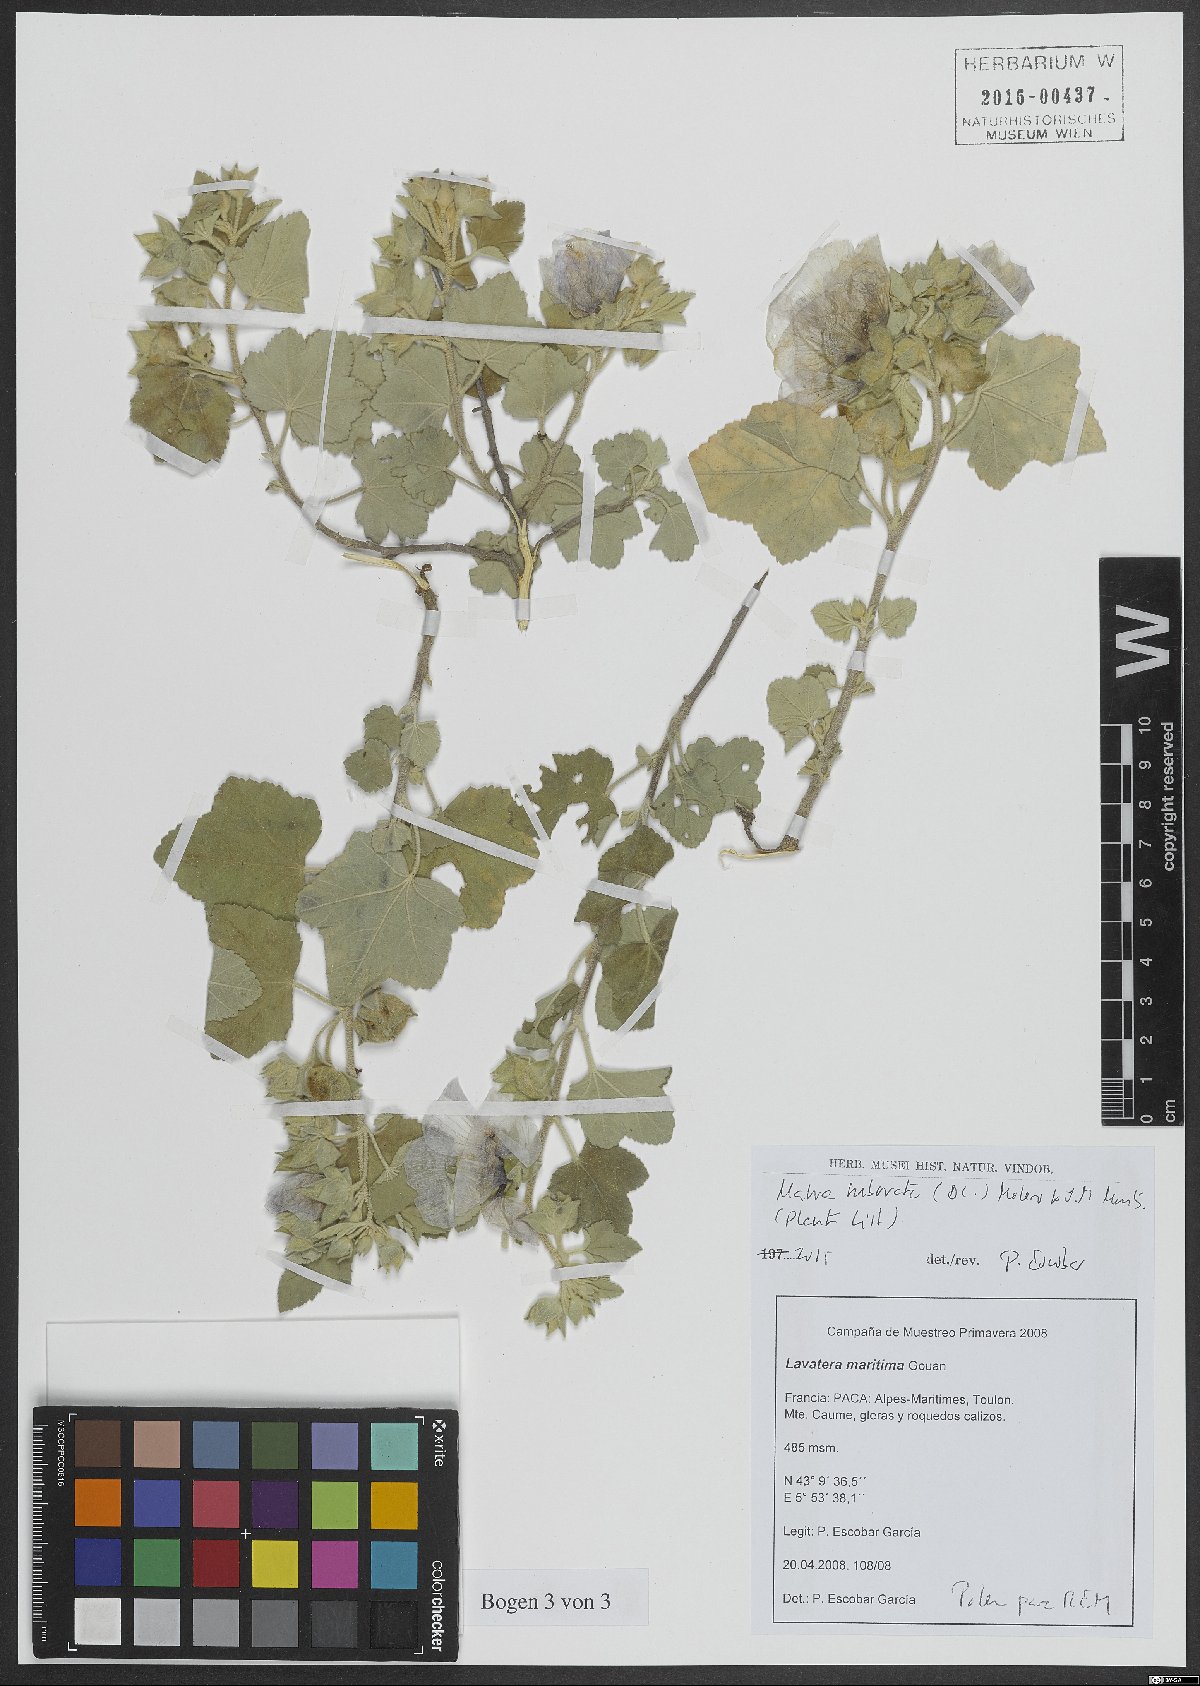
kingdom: Plantae
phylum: Tracheophyta
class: Magnoliopsida
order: Malvales
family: Malvaceae
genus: Malva
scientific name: Malva subovata
